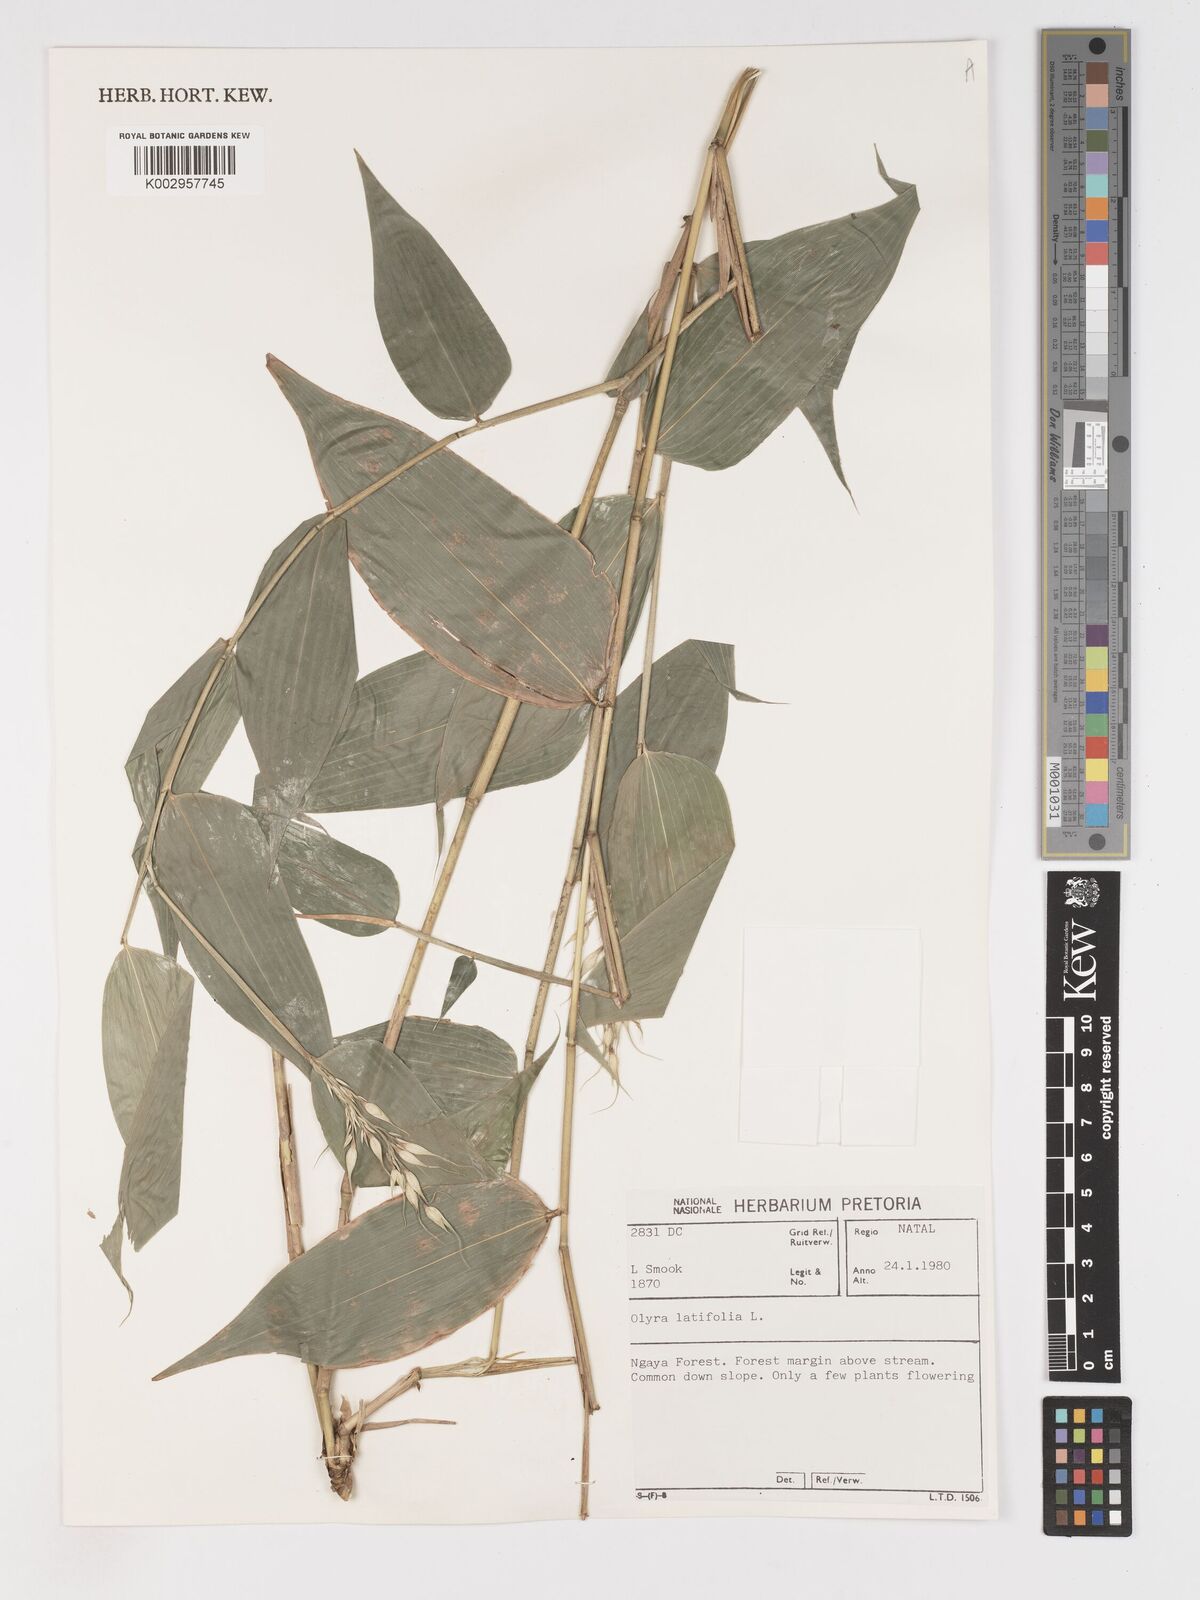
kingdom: Plantae
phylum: Tracheophyta
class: Liliopsida
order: Poales
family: Poaceae
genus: Olyra
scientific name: Olyra latifolia
